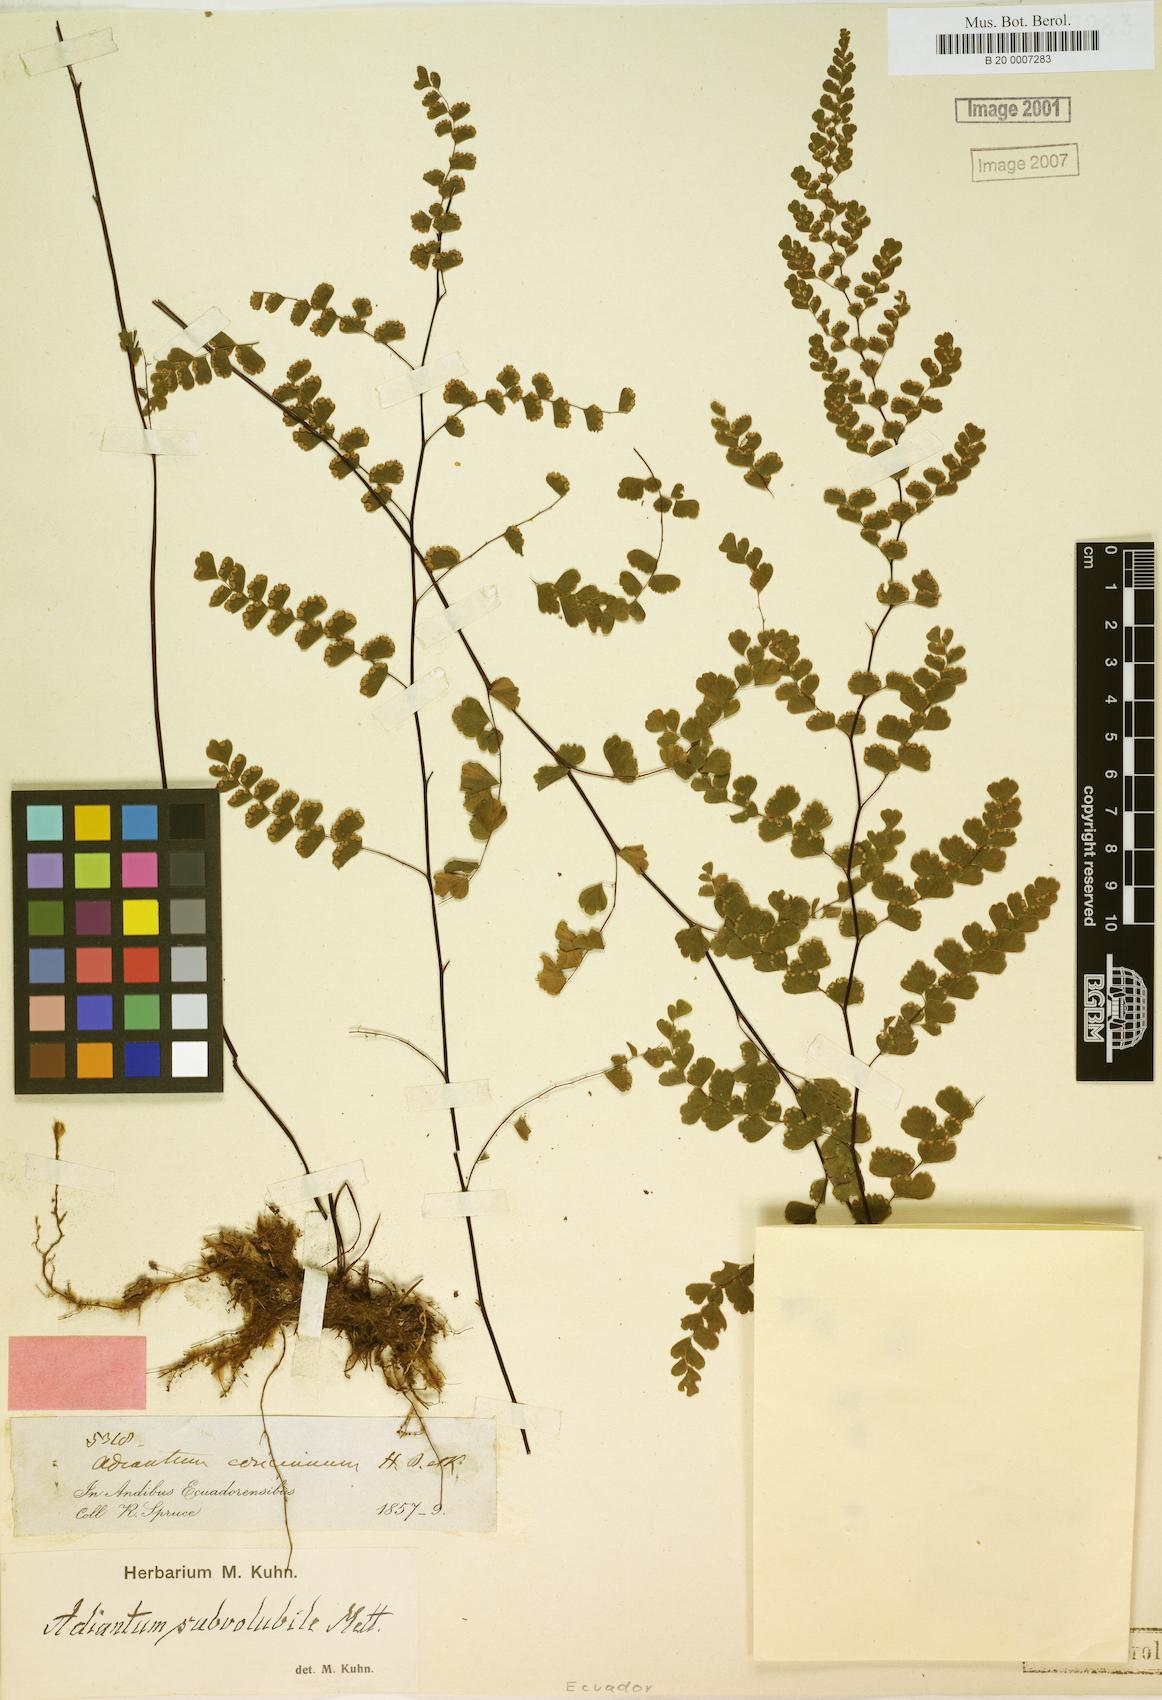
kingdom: Plantae
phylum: Tracheophyta
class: Polypodiopsida
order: Polypodiales
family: Pteridaceae
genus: Adiantum
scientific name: Adiantum subvolubile
